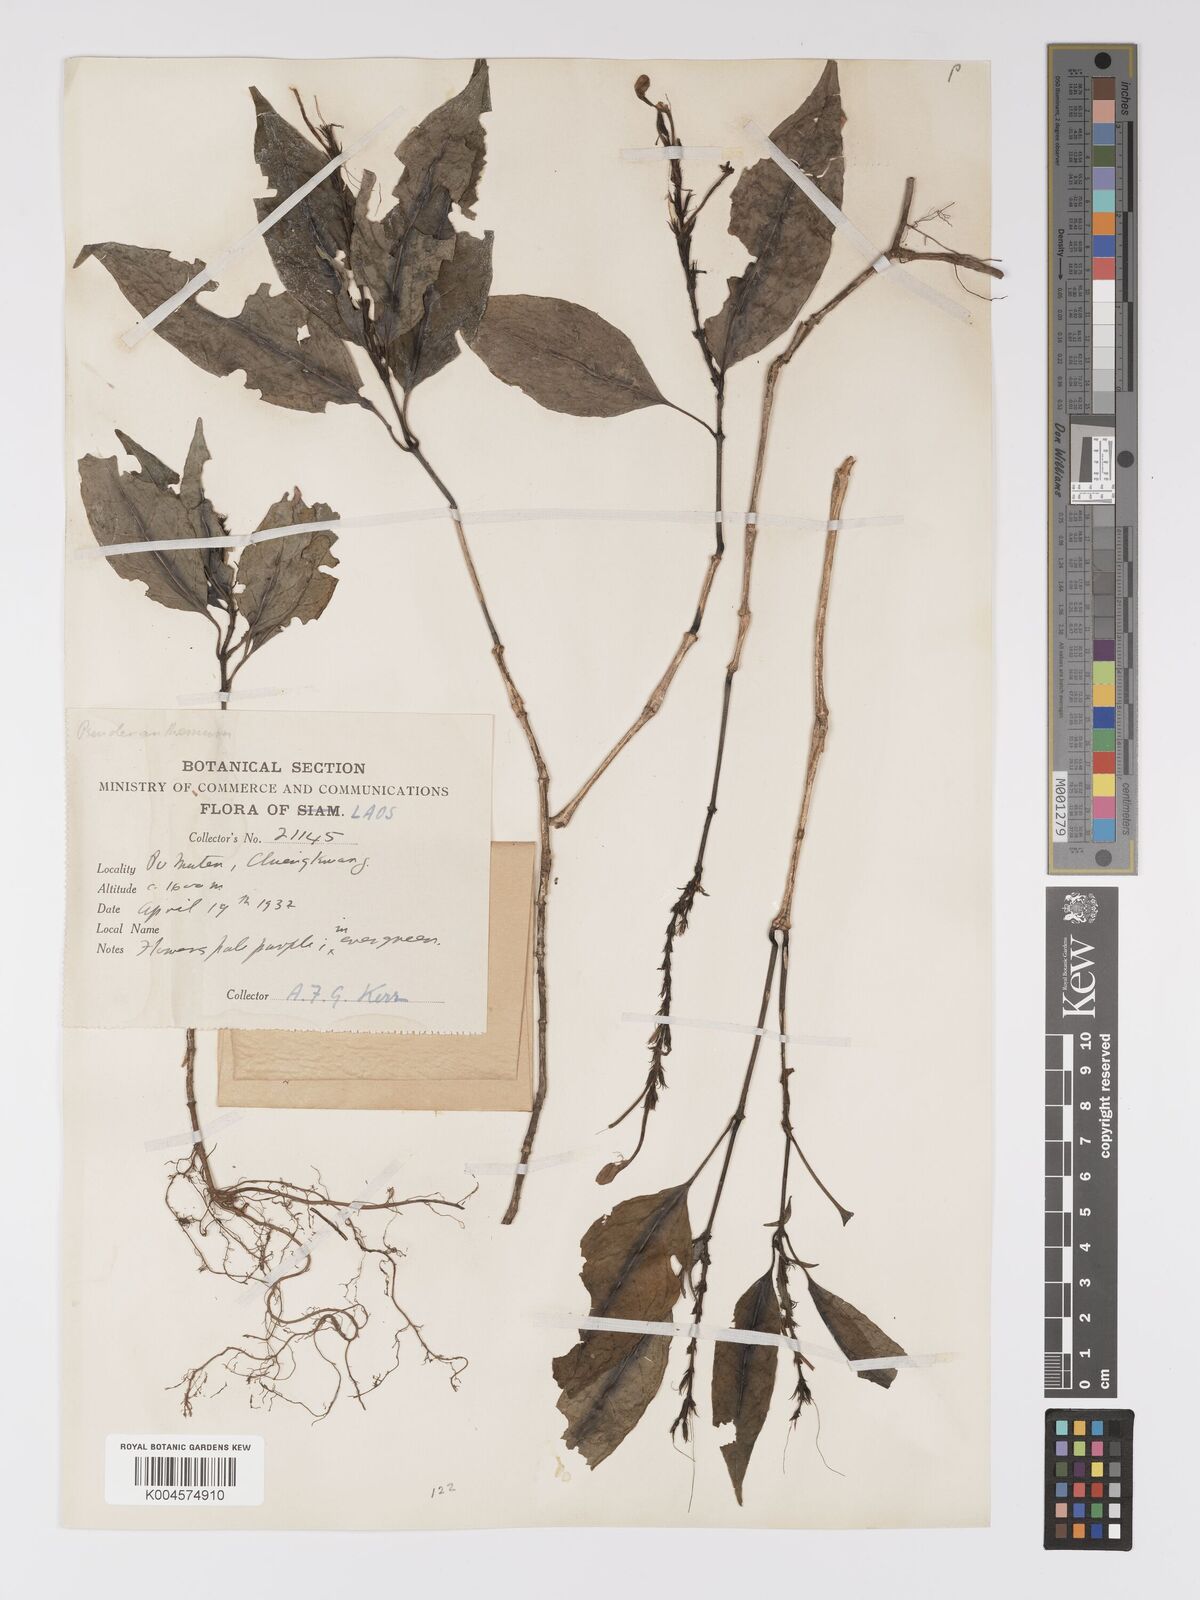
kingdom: Plantae
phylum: Tracheophyta
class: Magnoliopsida
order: Lamiales
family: Acanthaceae
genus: Pseuderanthemum
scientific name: Pseuderanthemum
